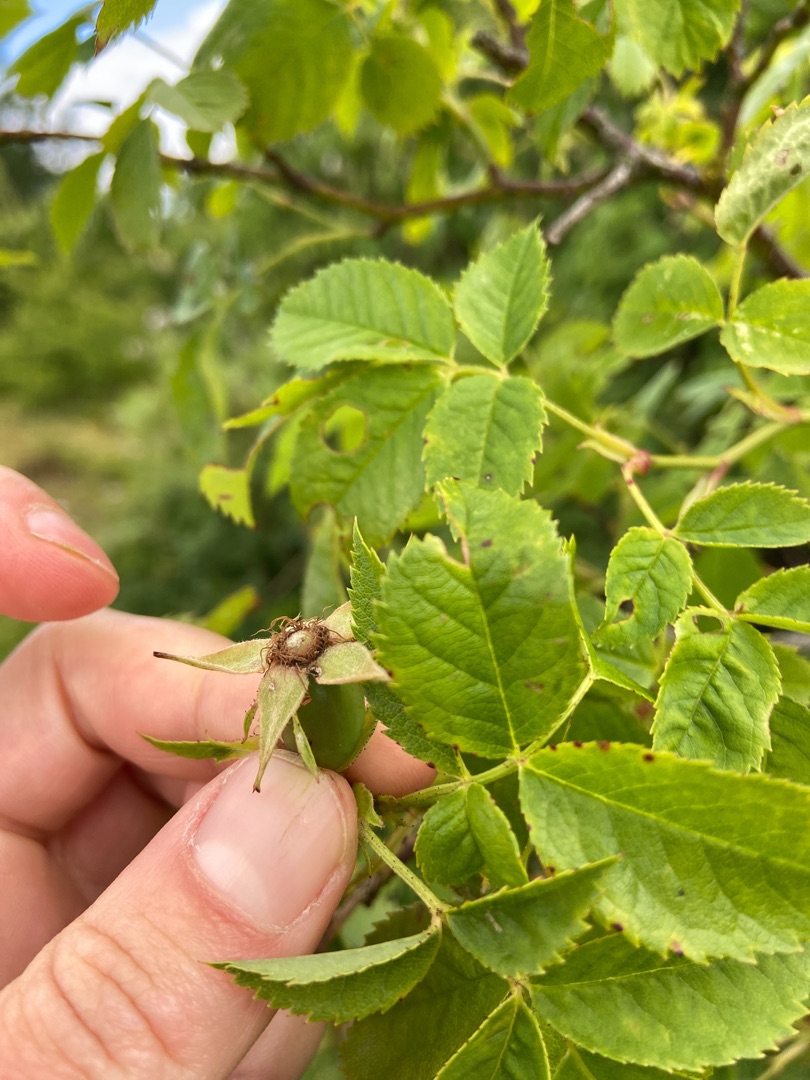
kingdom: Plantae
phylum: Tracheophyta
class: Magnoliopsida
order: Rosales
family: Rosaceae
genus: Rosa
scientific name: Rosa canina
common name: Glat hunde-rose
